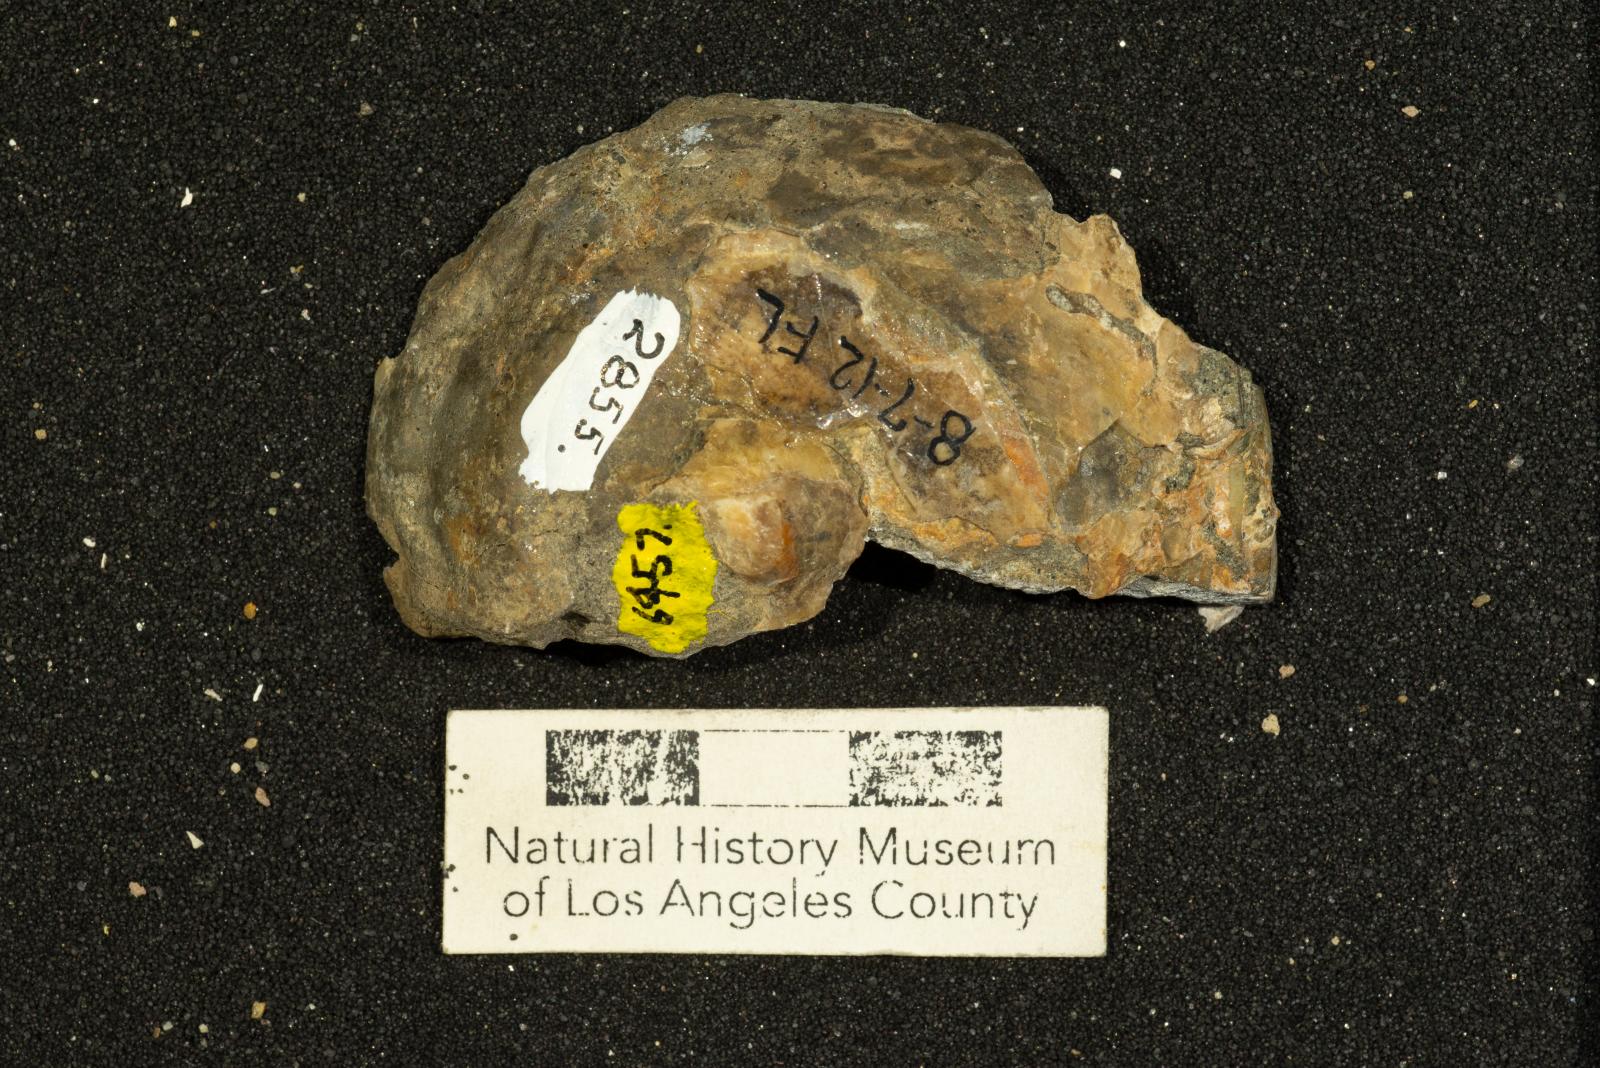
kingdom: Animalia
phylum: Mollusca
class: Gastropoda
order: Littorinimorpha
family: Xenophoridae
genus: Xenophora
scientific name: Xenophora hermax
